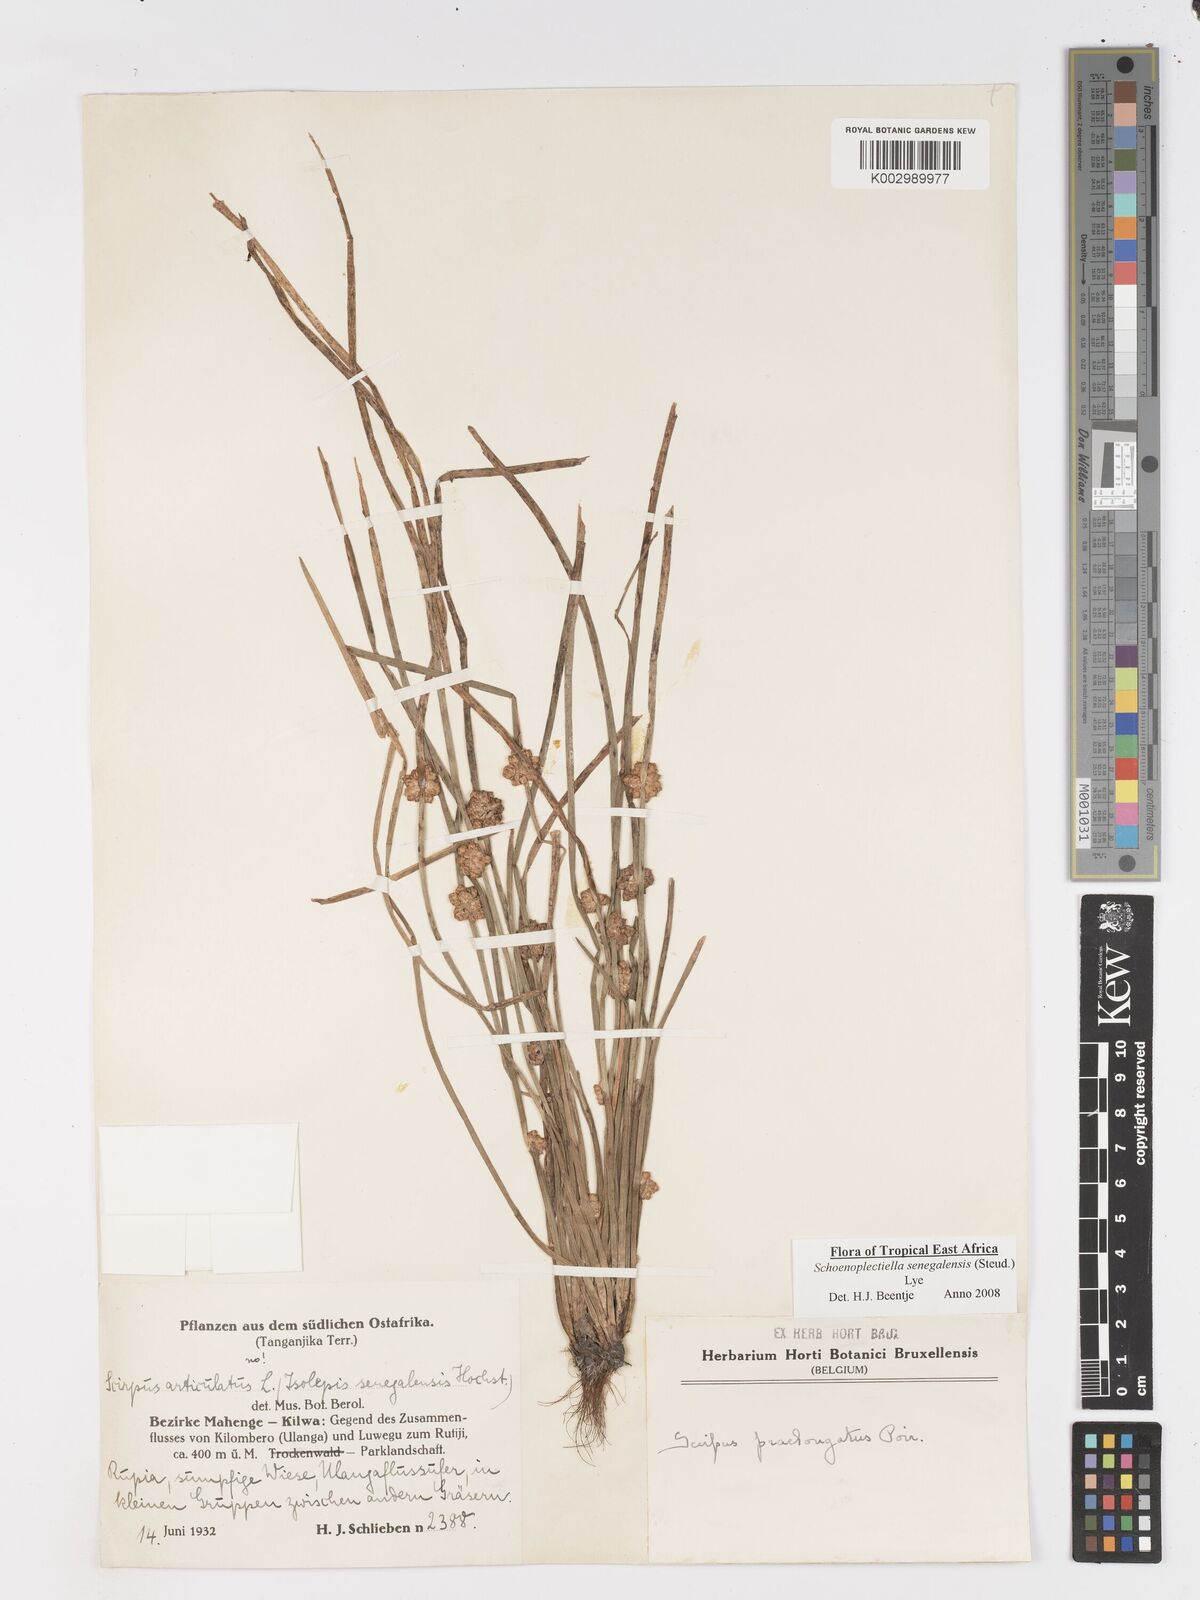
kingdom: Plantae
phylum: Tracheophyta
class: Liliopsida
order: Poales
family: Cyperaceae
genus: Schoenoplectiella
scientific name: Schoenoplectiella senegalensis
